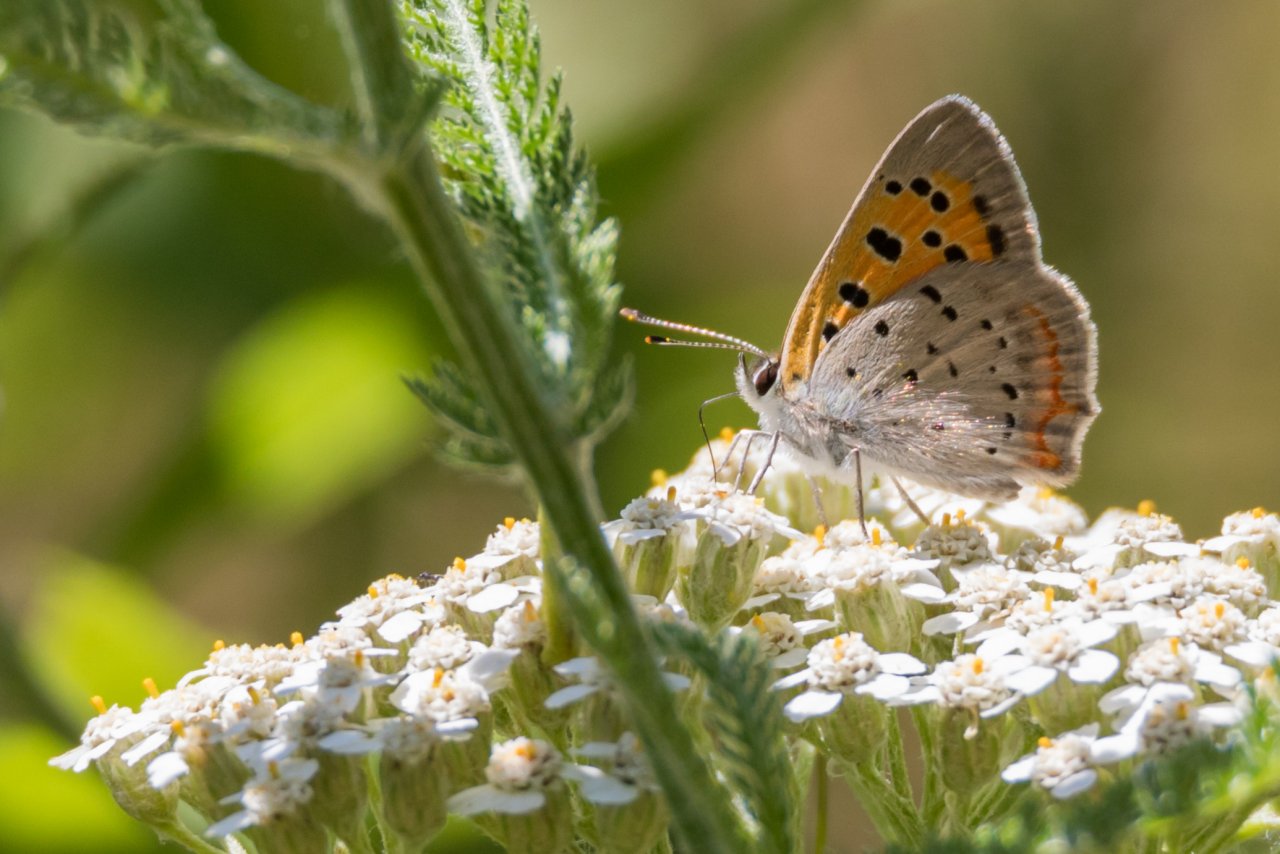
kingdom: Animalia
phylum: Arthropoda
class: Insecta
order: Lepidoptera
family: Lycaenidae
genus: Lycaena
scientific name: Lycaena phlaeas
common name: American Copper
